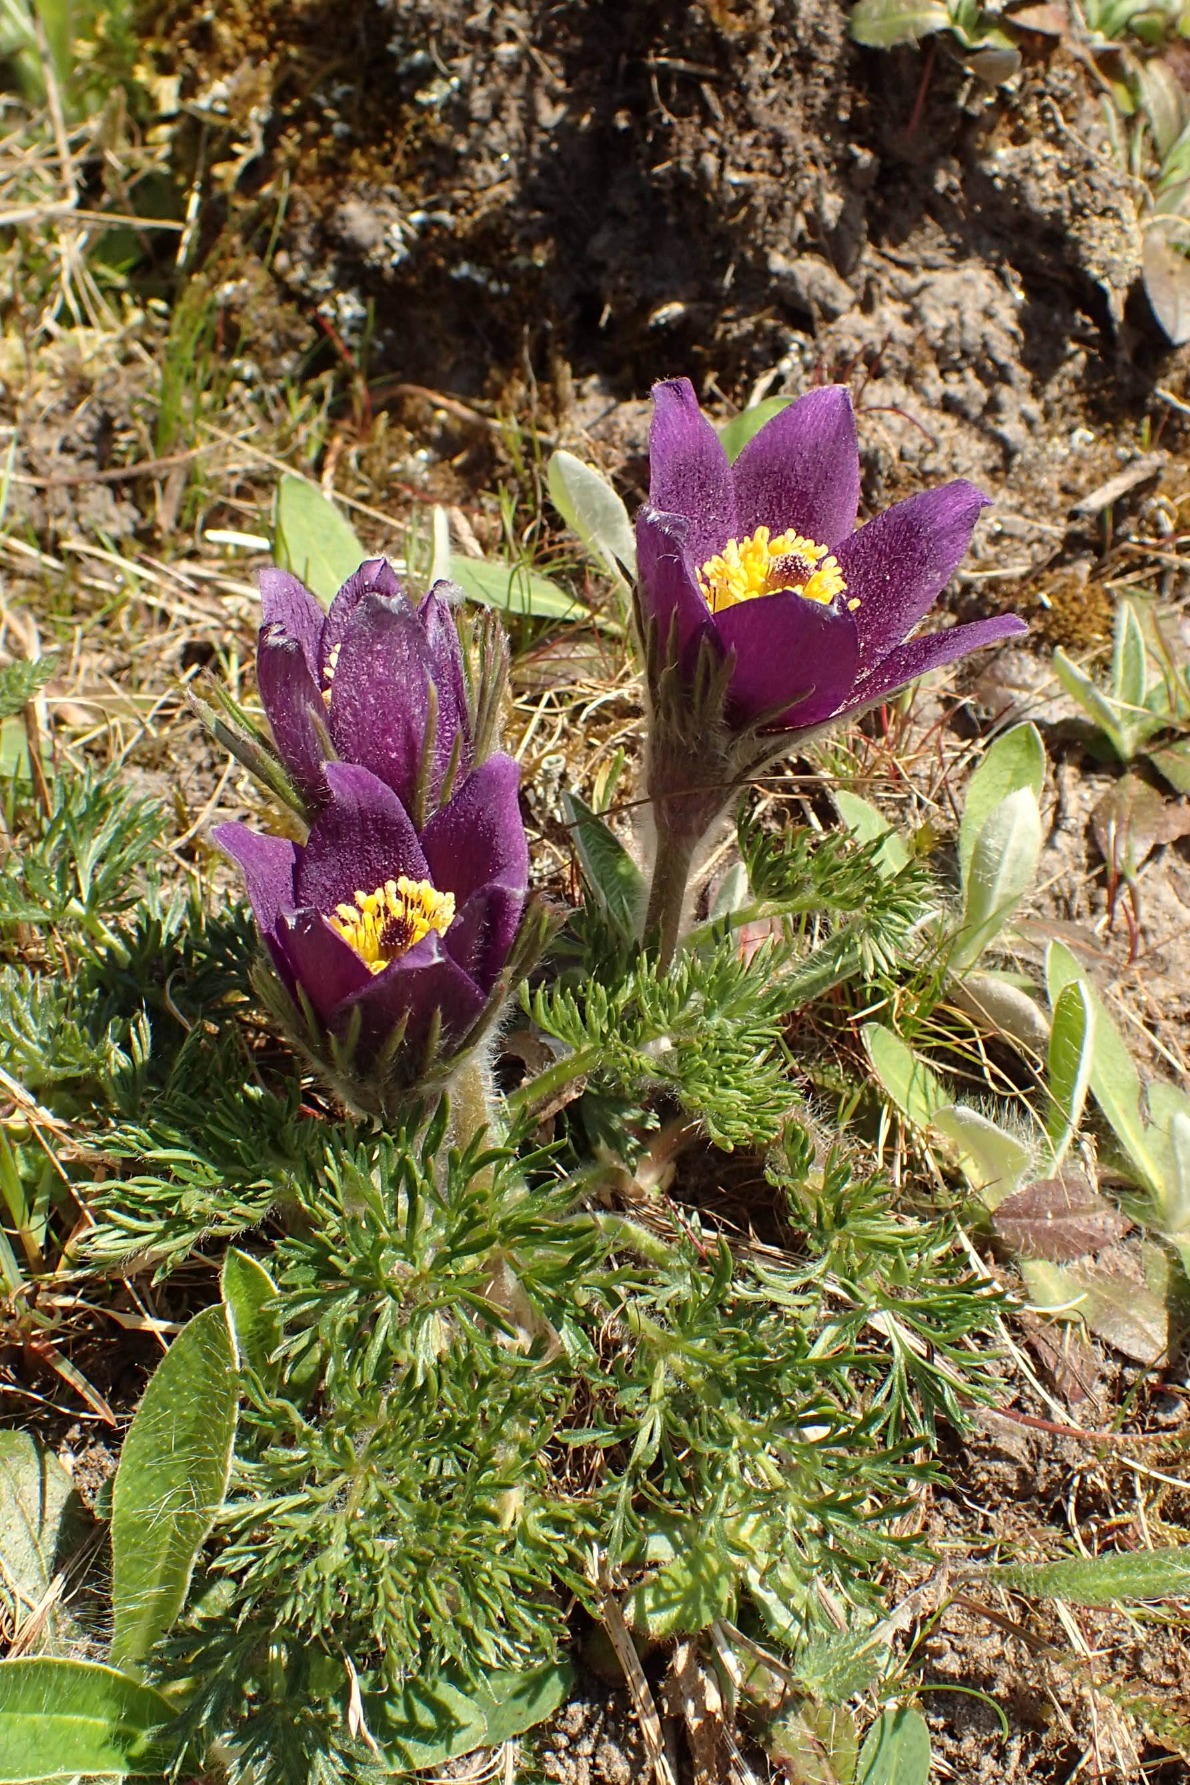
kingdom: Plantae
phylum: Tracheophyta
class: Magnoliopsida
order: Ranunculales
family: Ranunculaceae
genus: Pulsatilla
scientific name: Pulsatilla vulgaris
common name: Opret kobjælde
